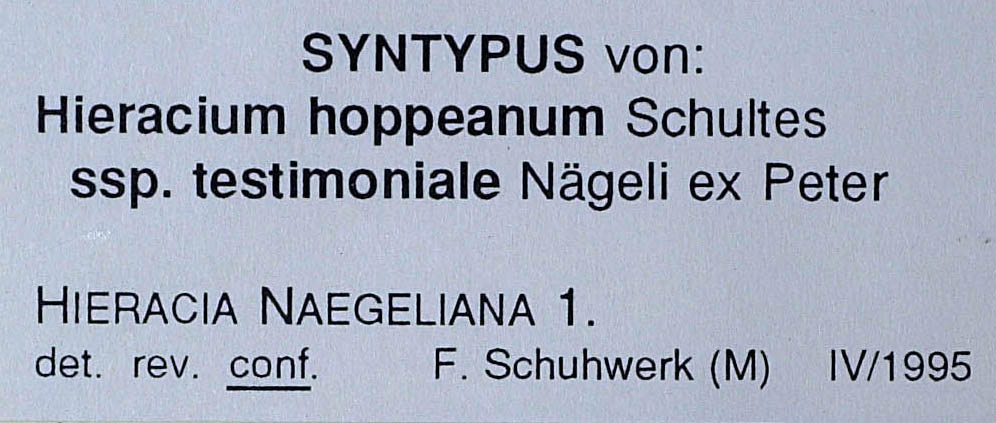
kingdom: Plantae
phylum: Tracheophyta
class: Magnoliopsida
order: Asterales
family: Asteraceae
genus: Pilosella
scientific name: Pilosella leucopsilon
